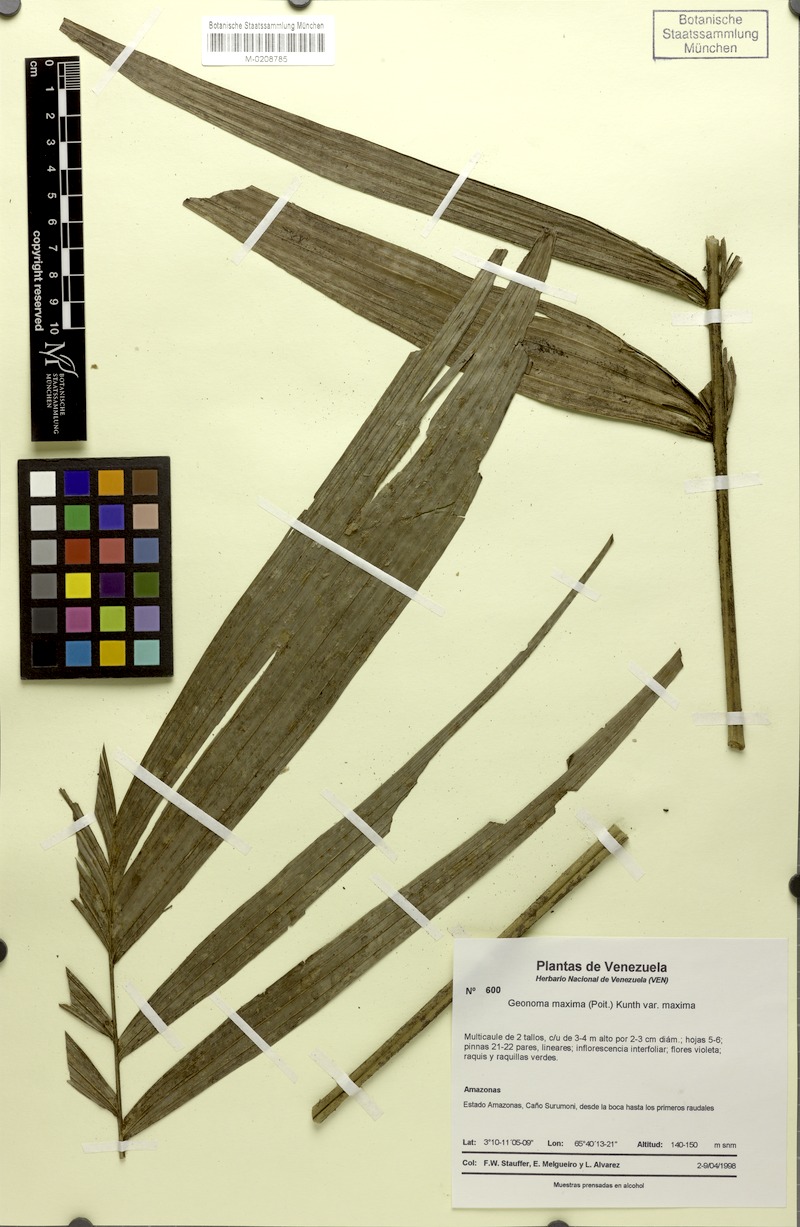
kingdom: Plantae
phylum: Tracheophyta
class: Liliopsida
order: Arecales
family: Arecaceae
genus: Geonoma
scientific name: Geonoma maxima
